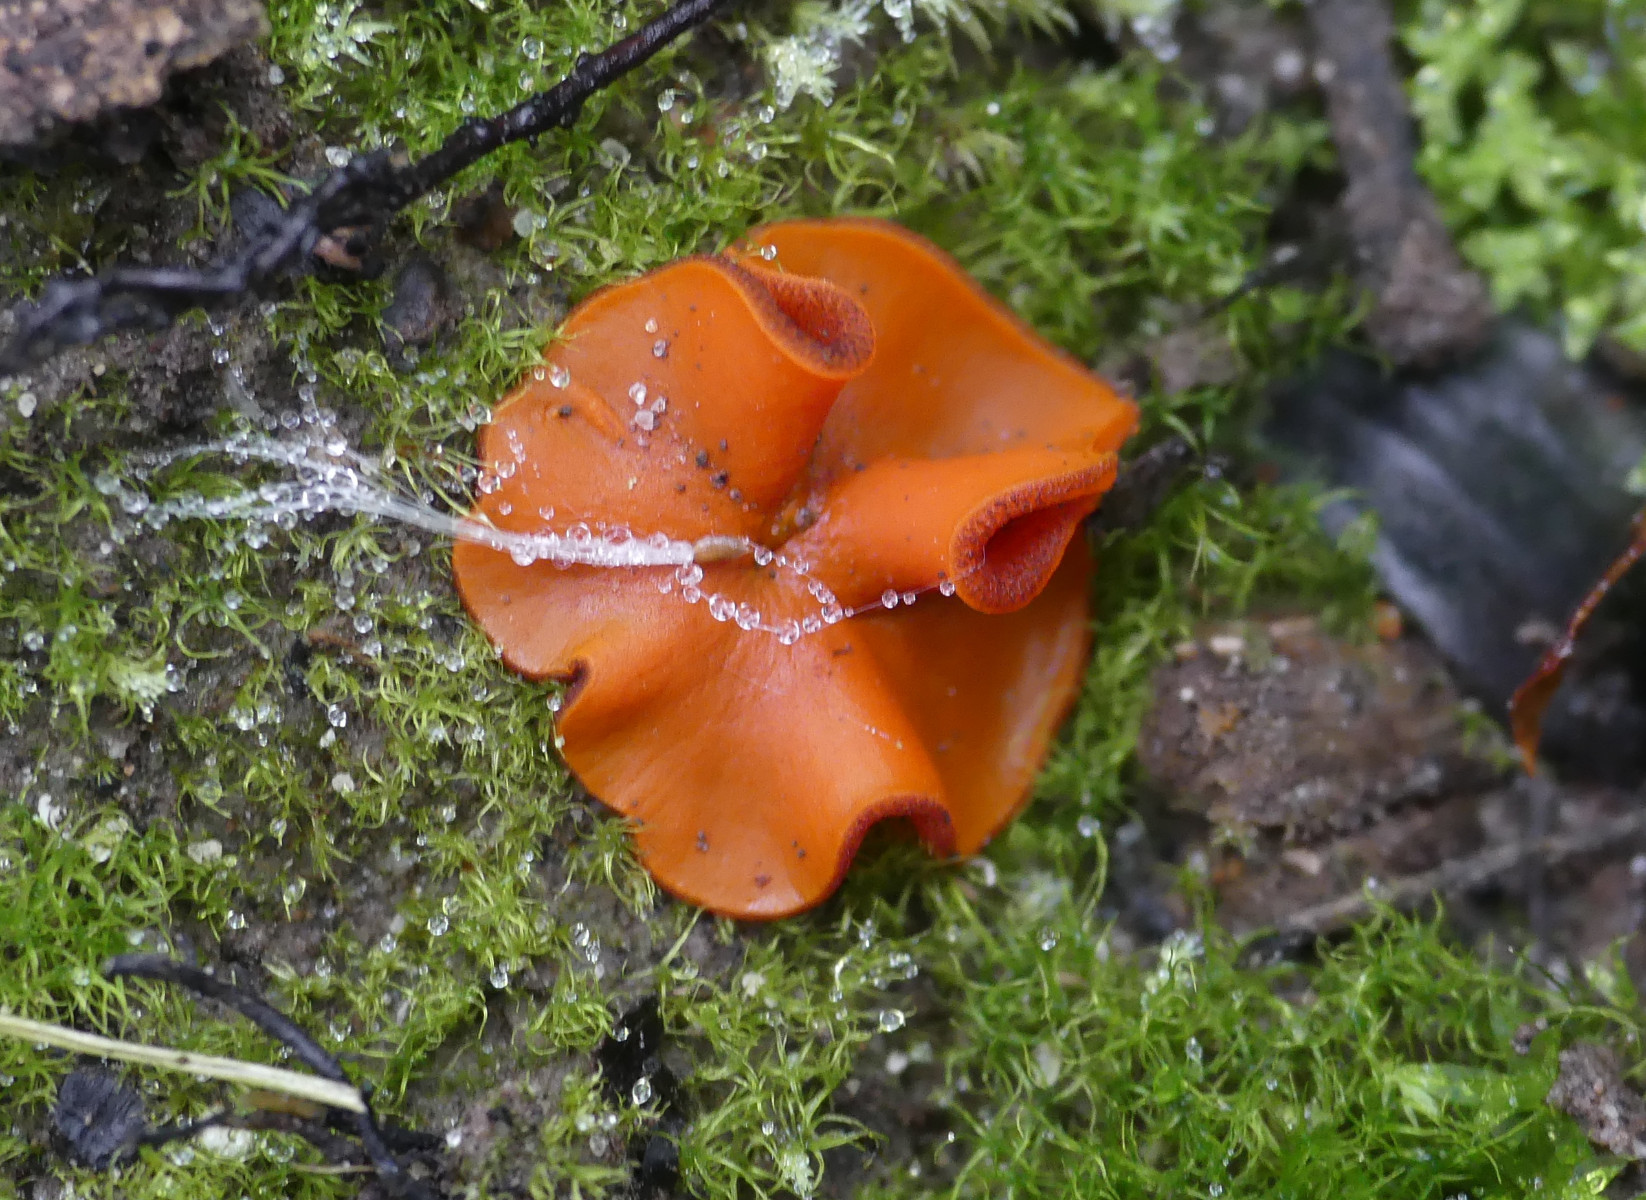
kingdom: Fungi
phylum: Ascomycota
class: Pezizomycetes
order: Pezizales
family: Pyronemataceae
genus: Melastiza
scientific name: Melastiza cornubiensis
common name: mørkrandet rødbæger
